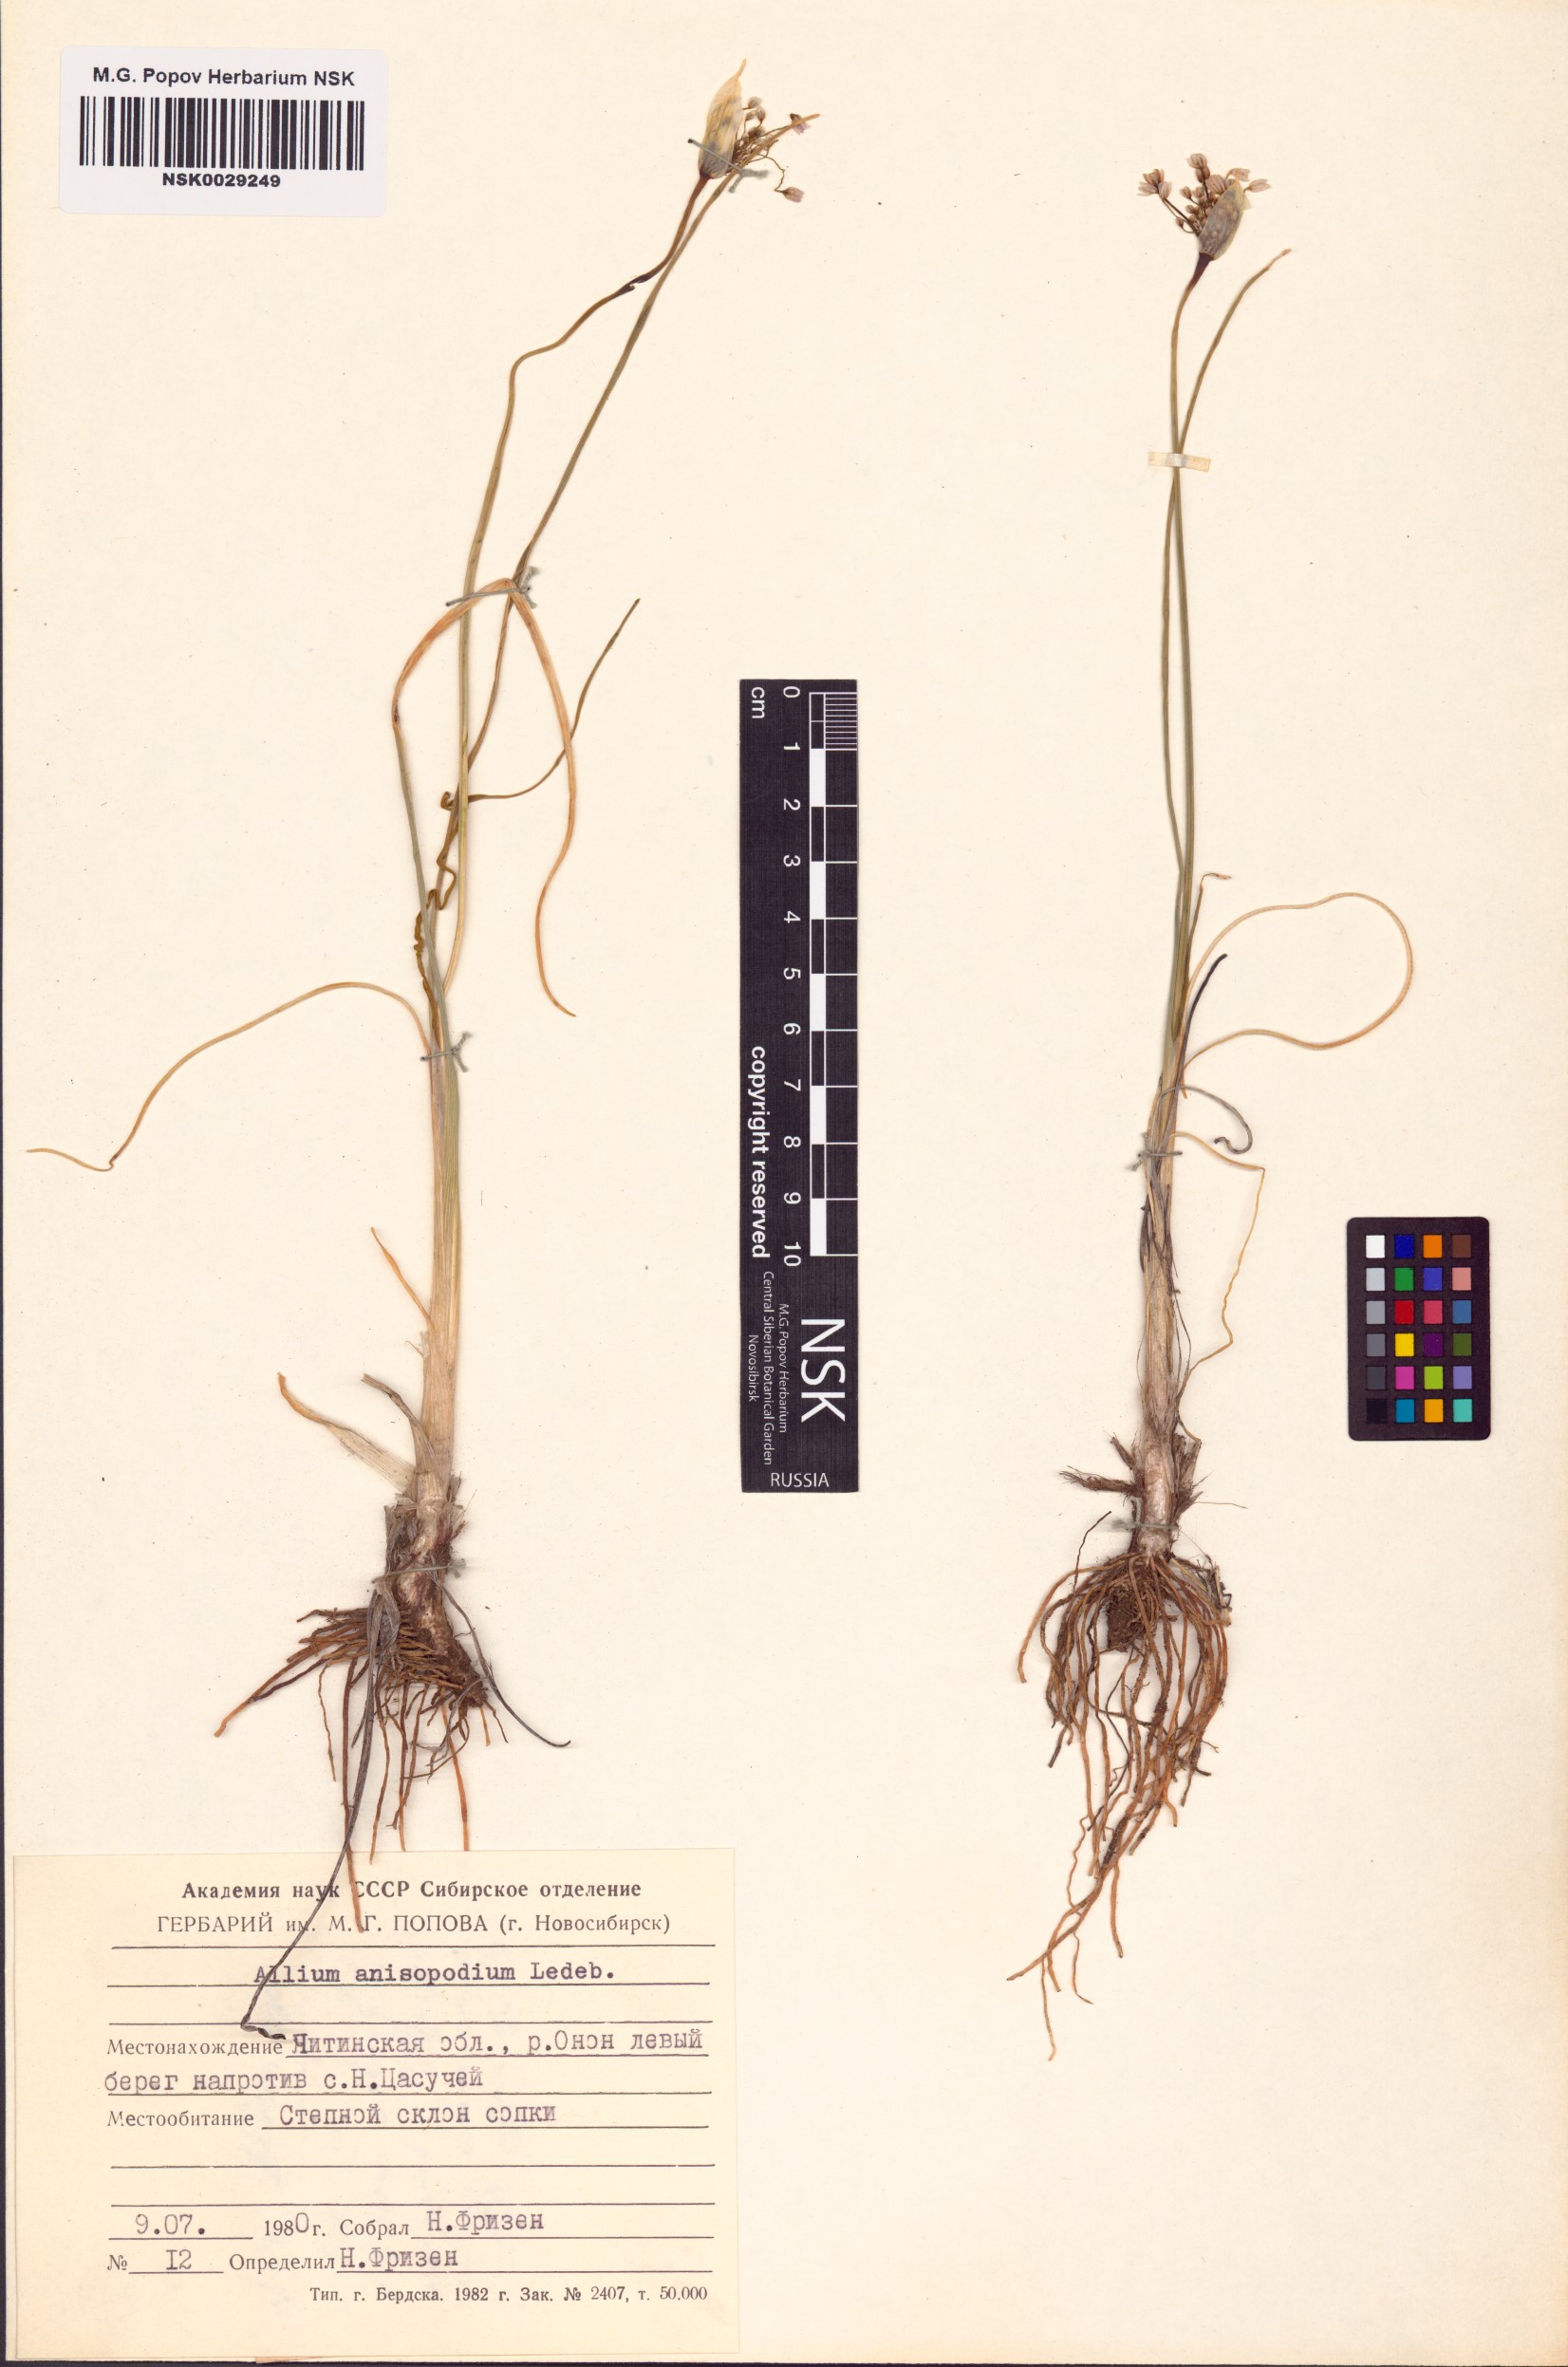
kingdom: Plantae
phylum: Tracheophyta
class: Liliopsida
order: Asparagales
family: Amaryllidaceae
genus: Allium
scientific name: Allium anisopodium
